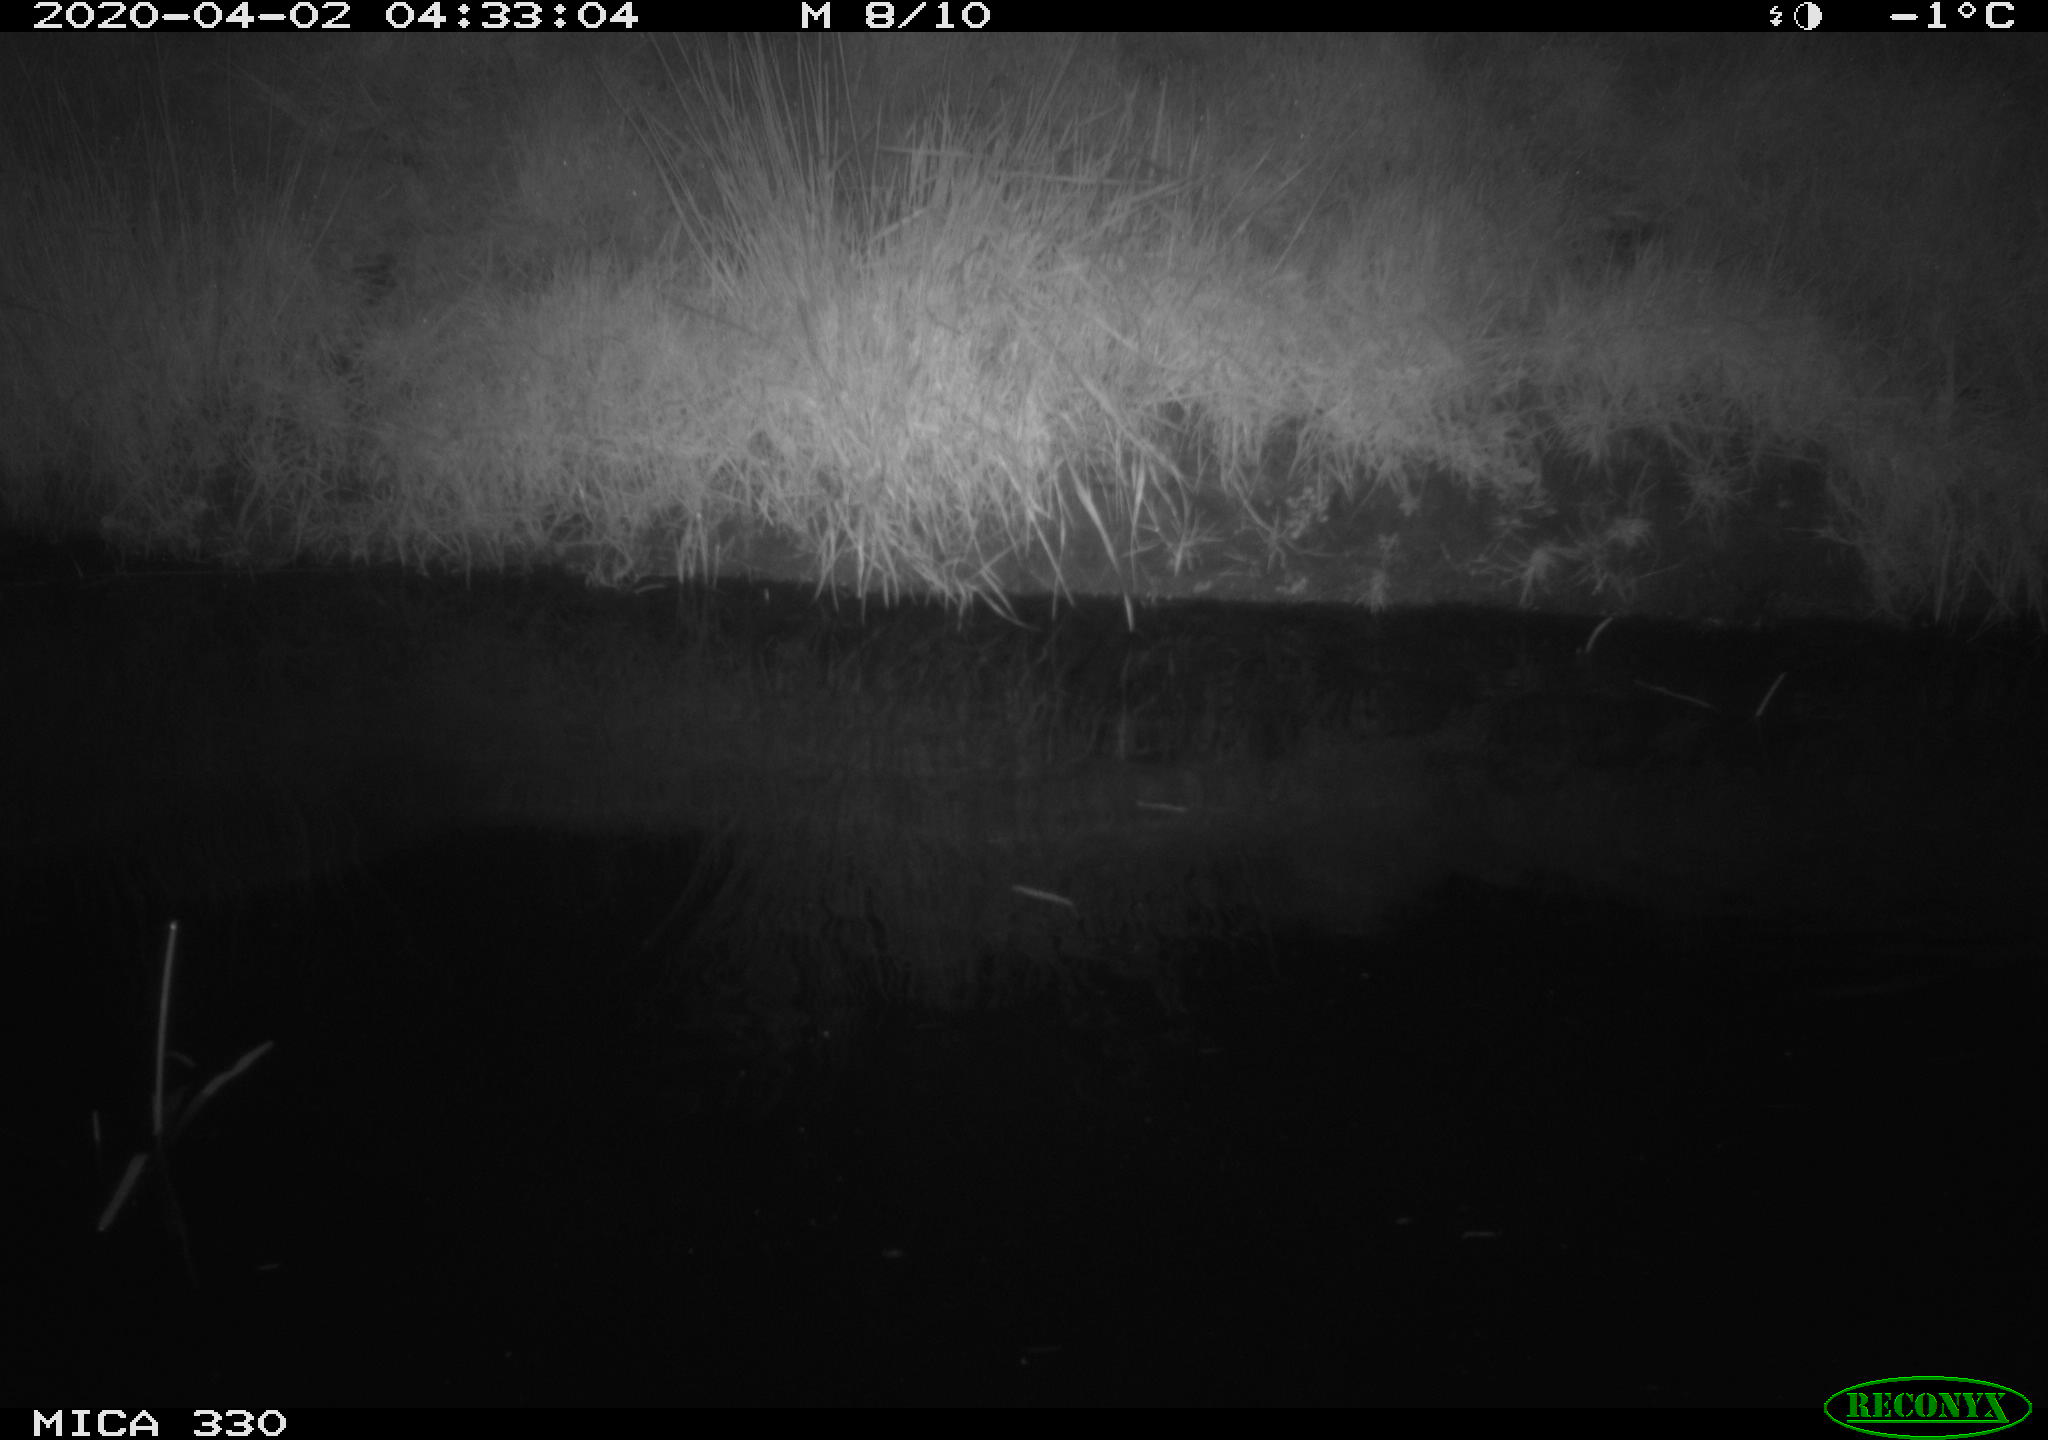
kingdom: Animalia
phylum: Chordata
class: Aves
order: Anseriformes
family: Anatidae
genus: Anas
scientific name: Anas platyrhynchos
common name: Mallard
